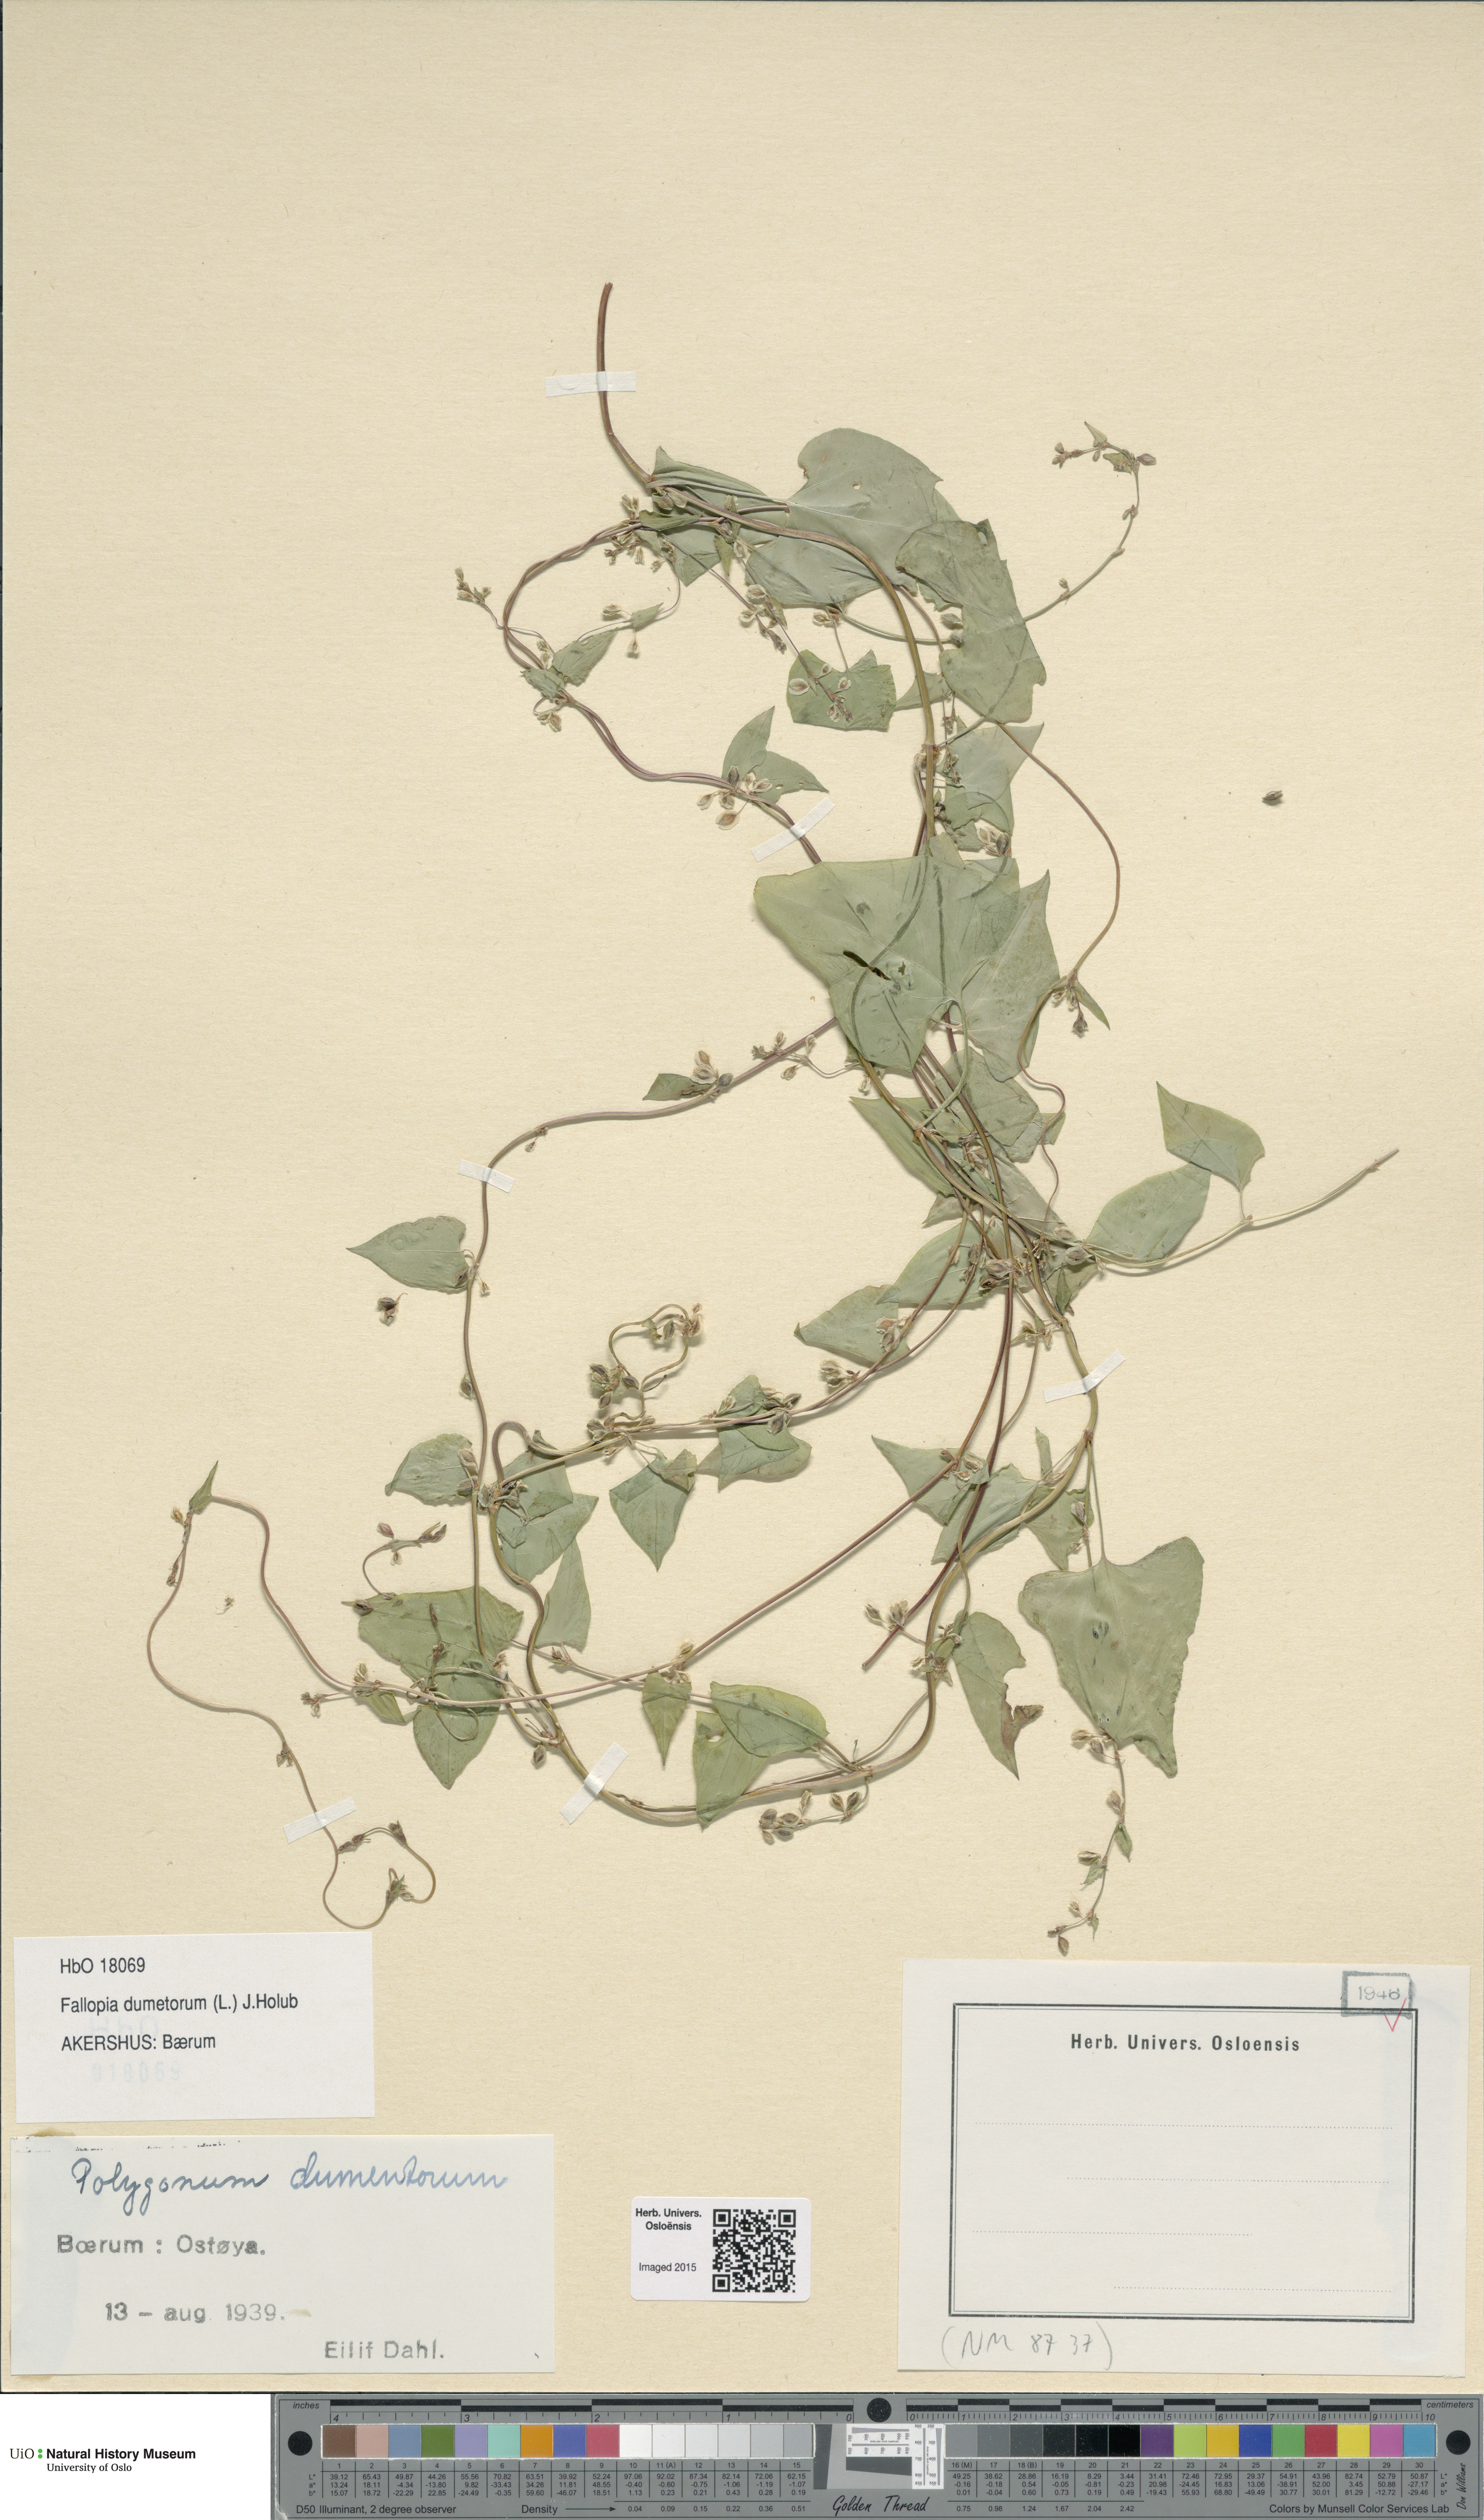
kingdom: Plantae
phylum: Tracheophyta
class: Magnoliopsida
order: Caryophyllales
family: Polygonaceae
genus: Fallopia
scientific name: Fallopia dumetorum
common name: Copse-bindweed
